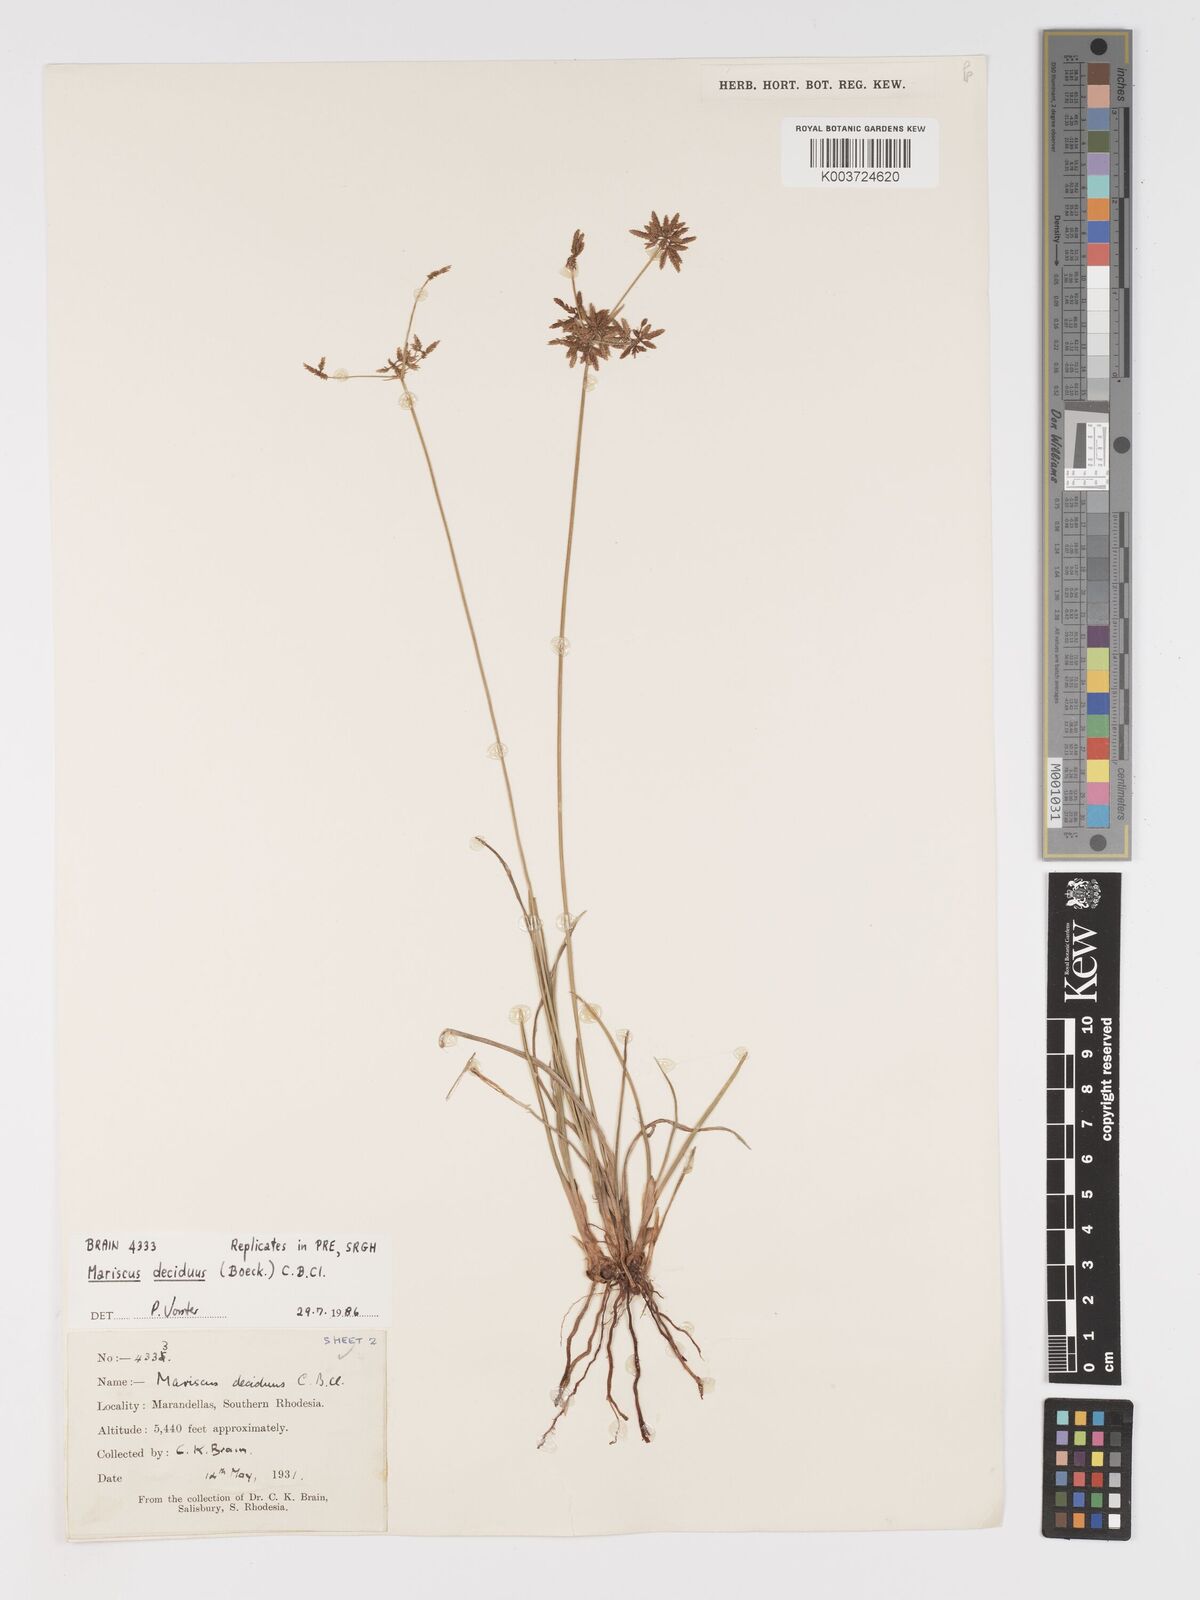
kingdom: Plantae
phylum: Tracheophyta
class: Liliopsida
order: Poales
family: Cyperaceae
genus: Cyperus
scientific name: Cyperus deciduus
